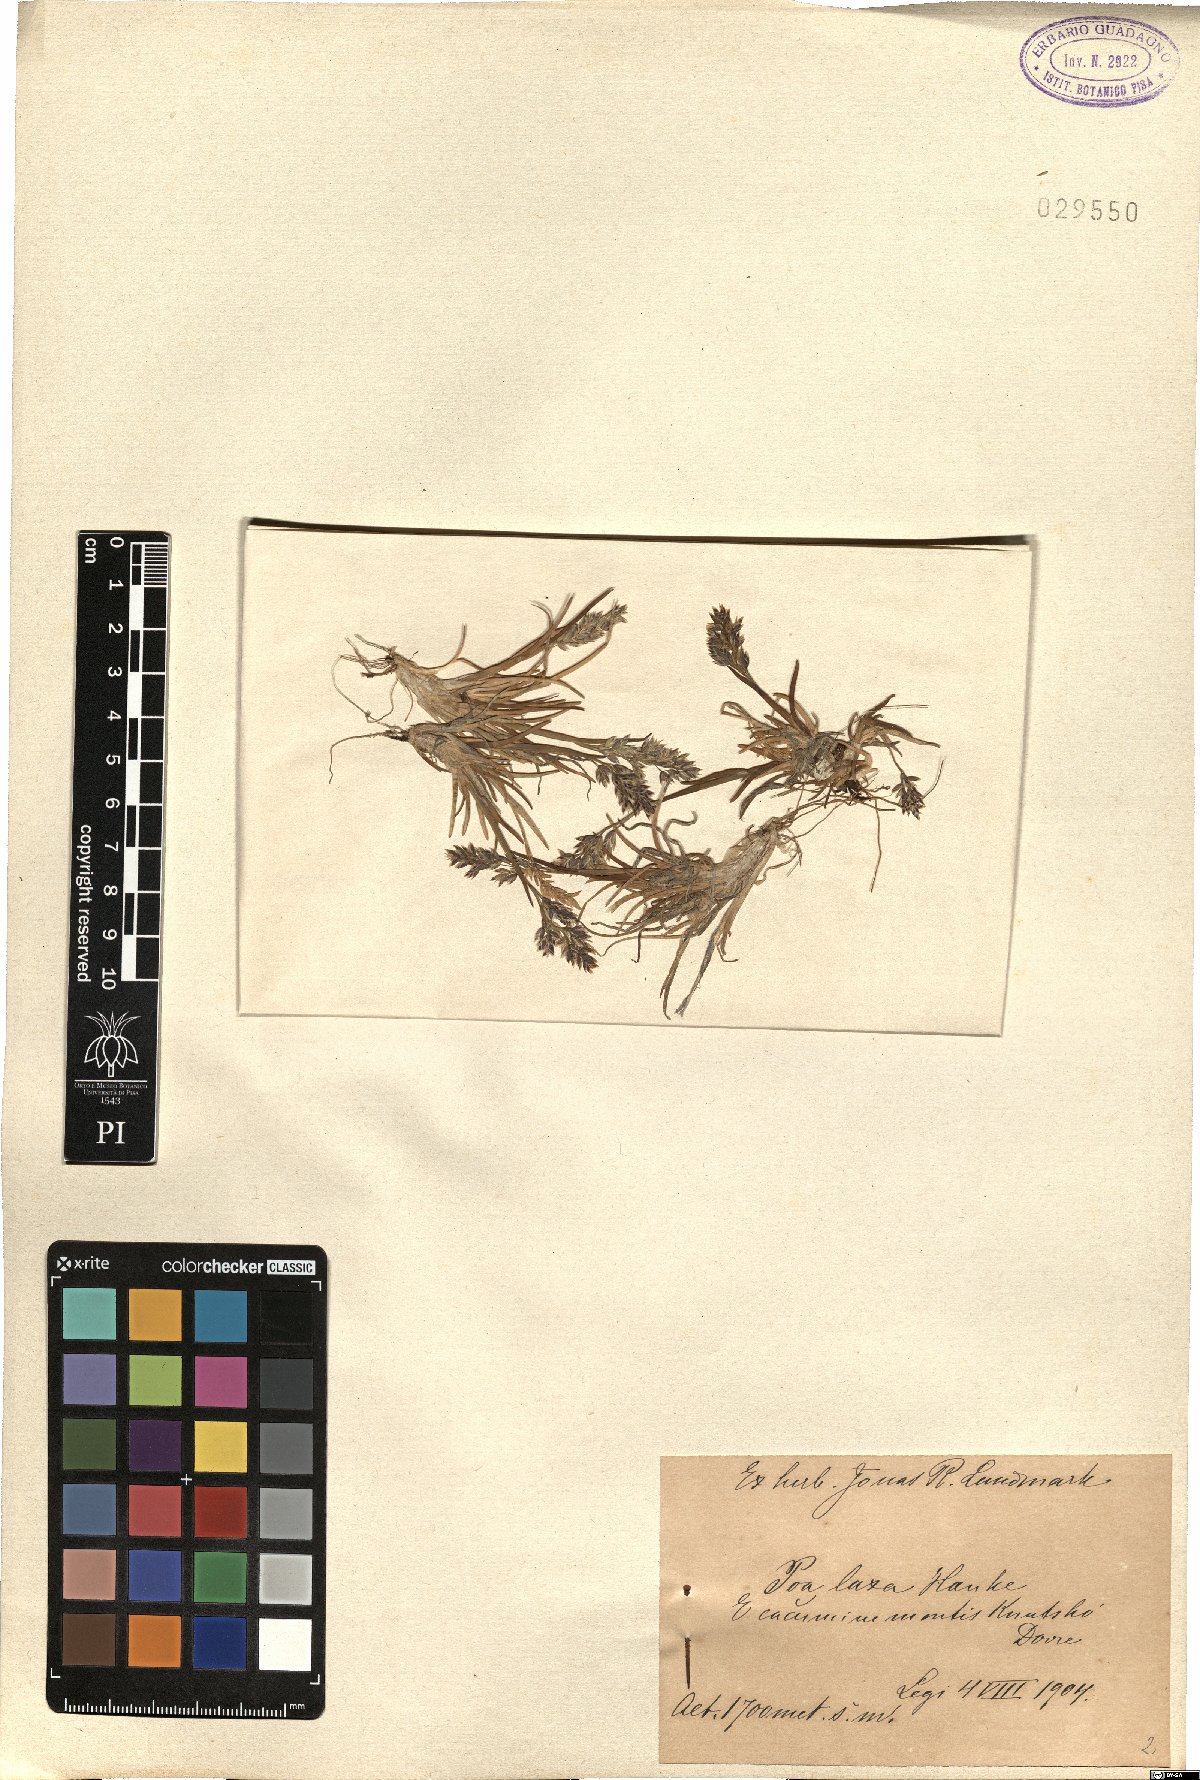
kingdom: Plantae
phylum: Tracheophyta
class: Liliopsida
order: Poales
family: Poaceae
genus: Poa
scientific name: Poa laxa
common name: Lax bluegrass
